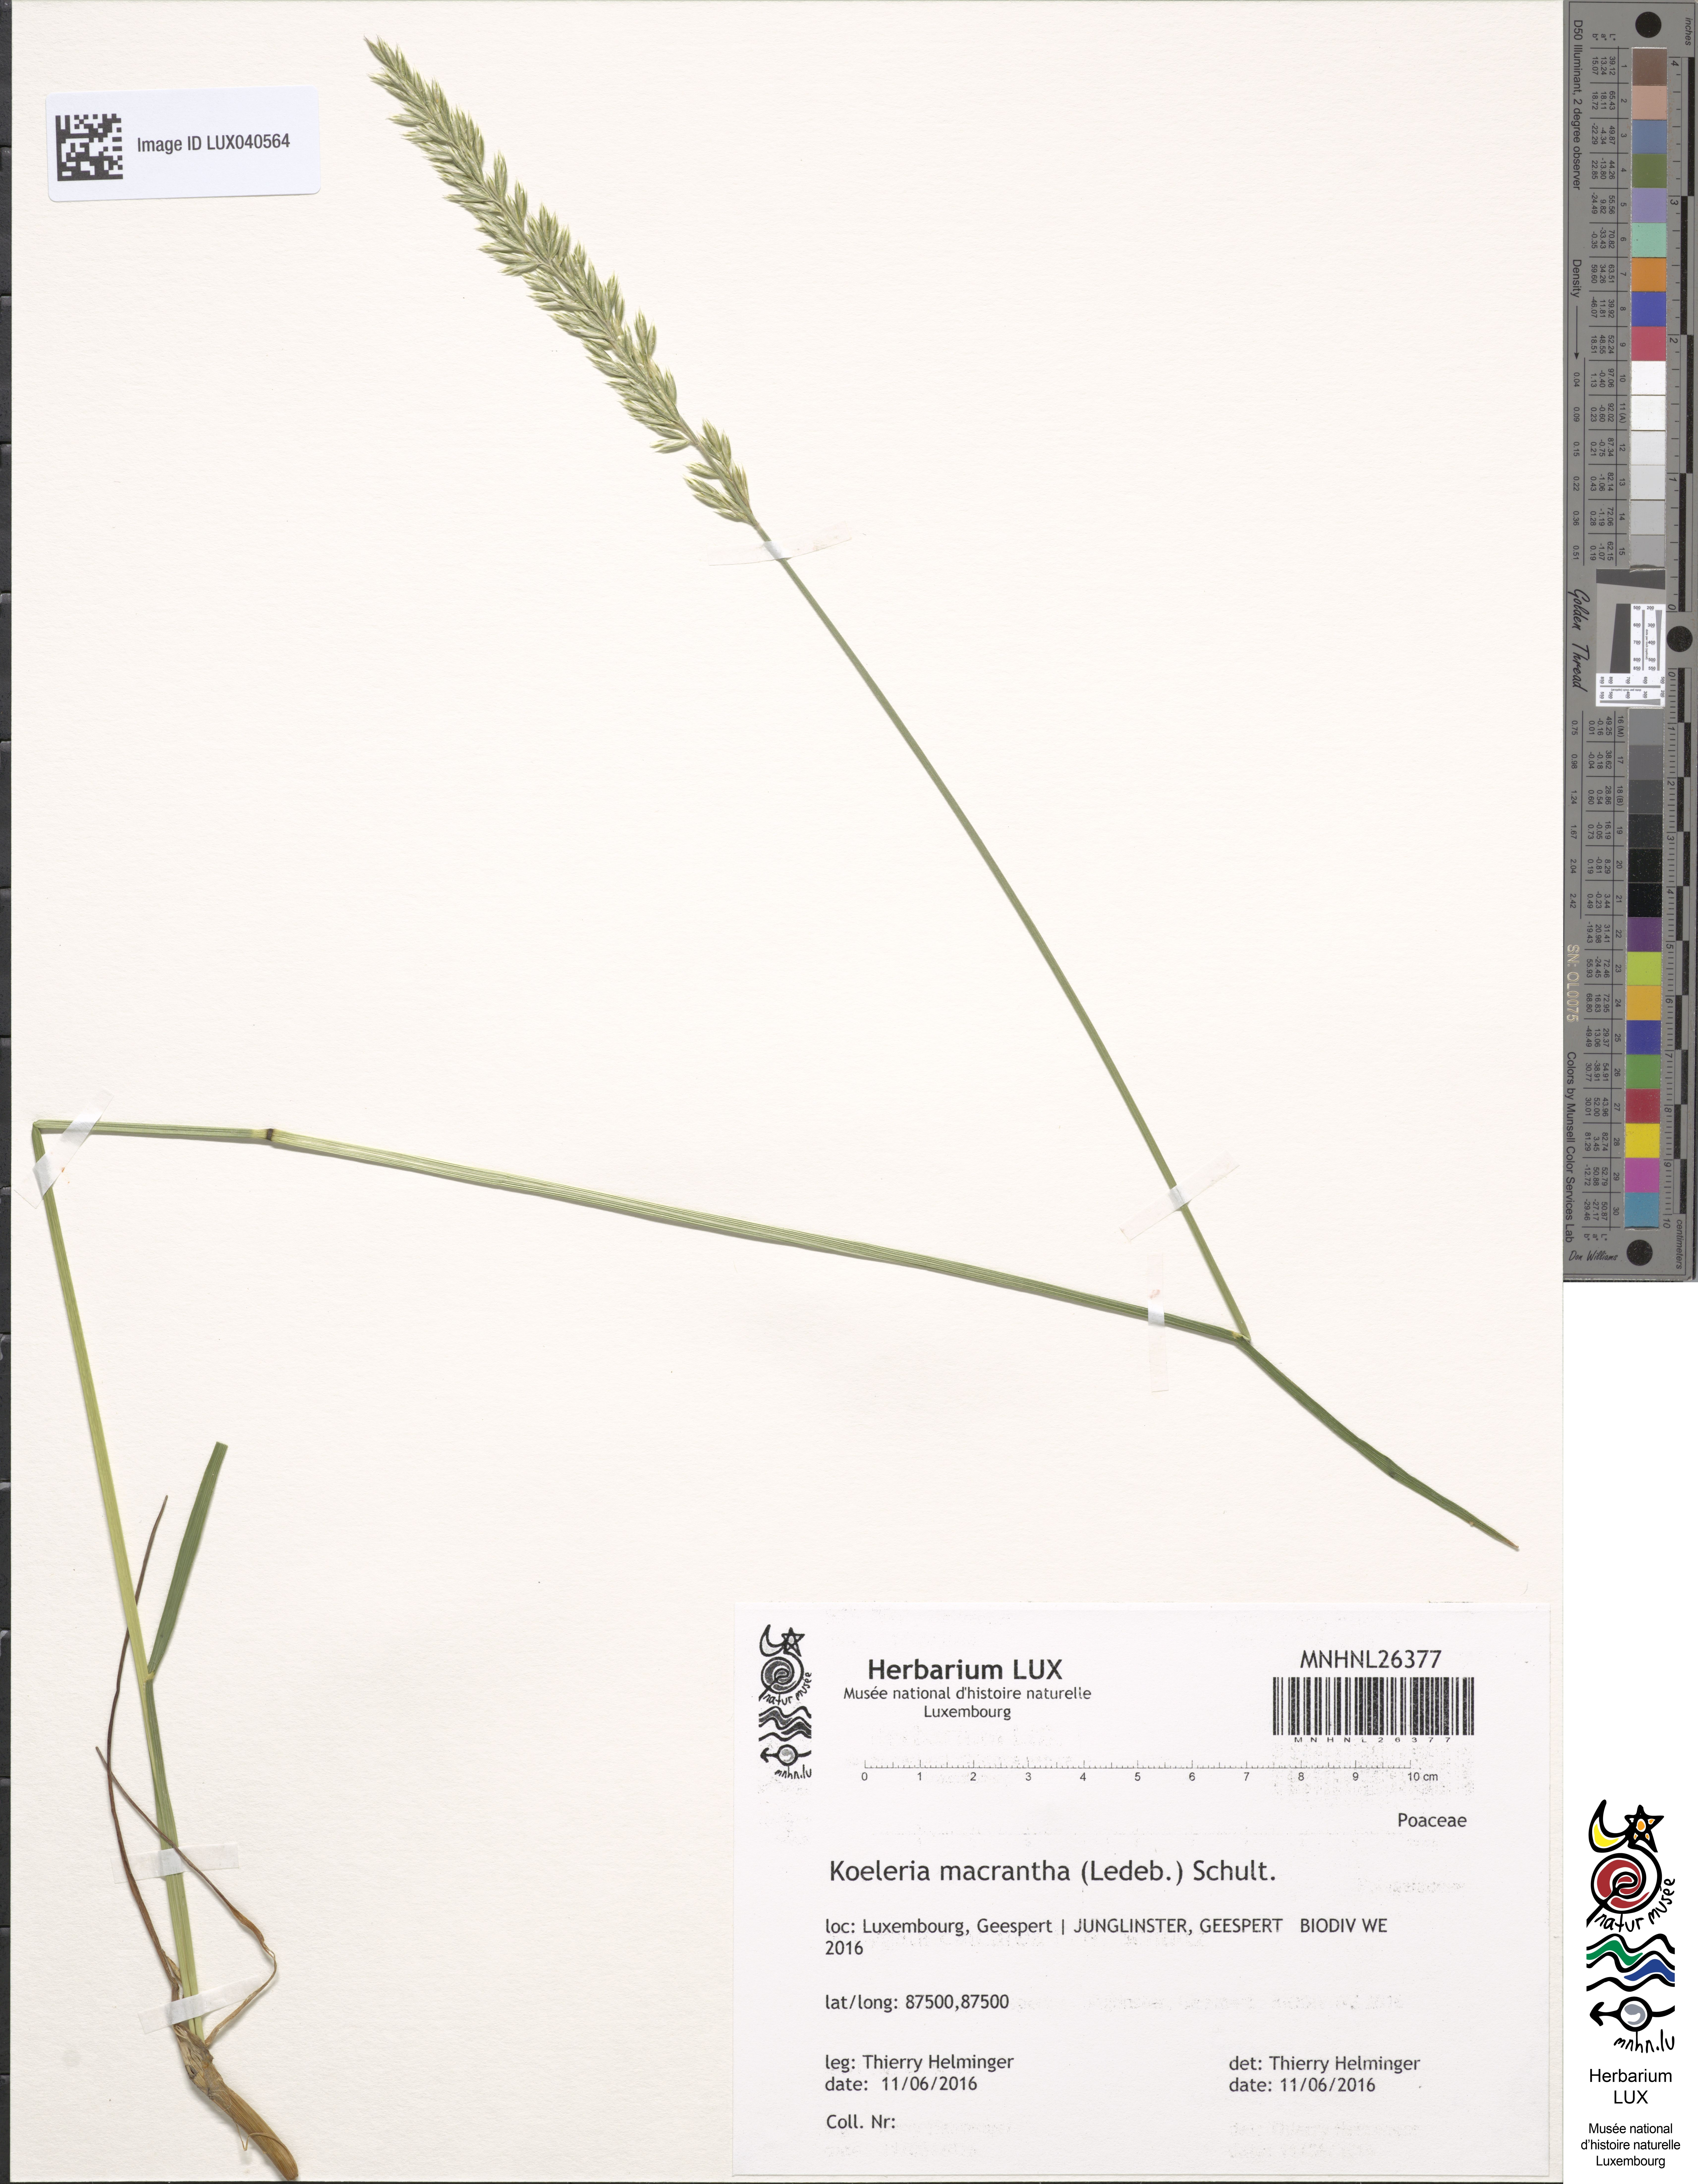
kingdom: Plantae
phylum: Tracheophyta
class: Liliopsida
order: Poales
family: Poaceae
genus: Koeleria
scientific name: Koeleria macrantha
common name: Crested hair-grass
